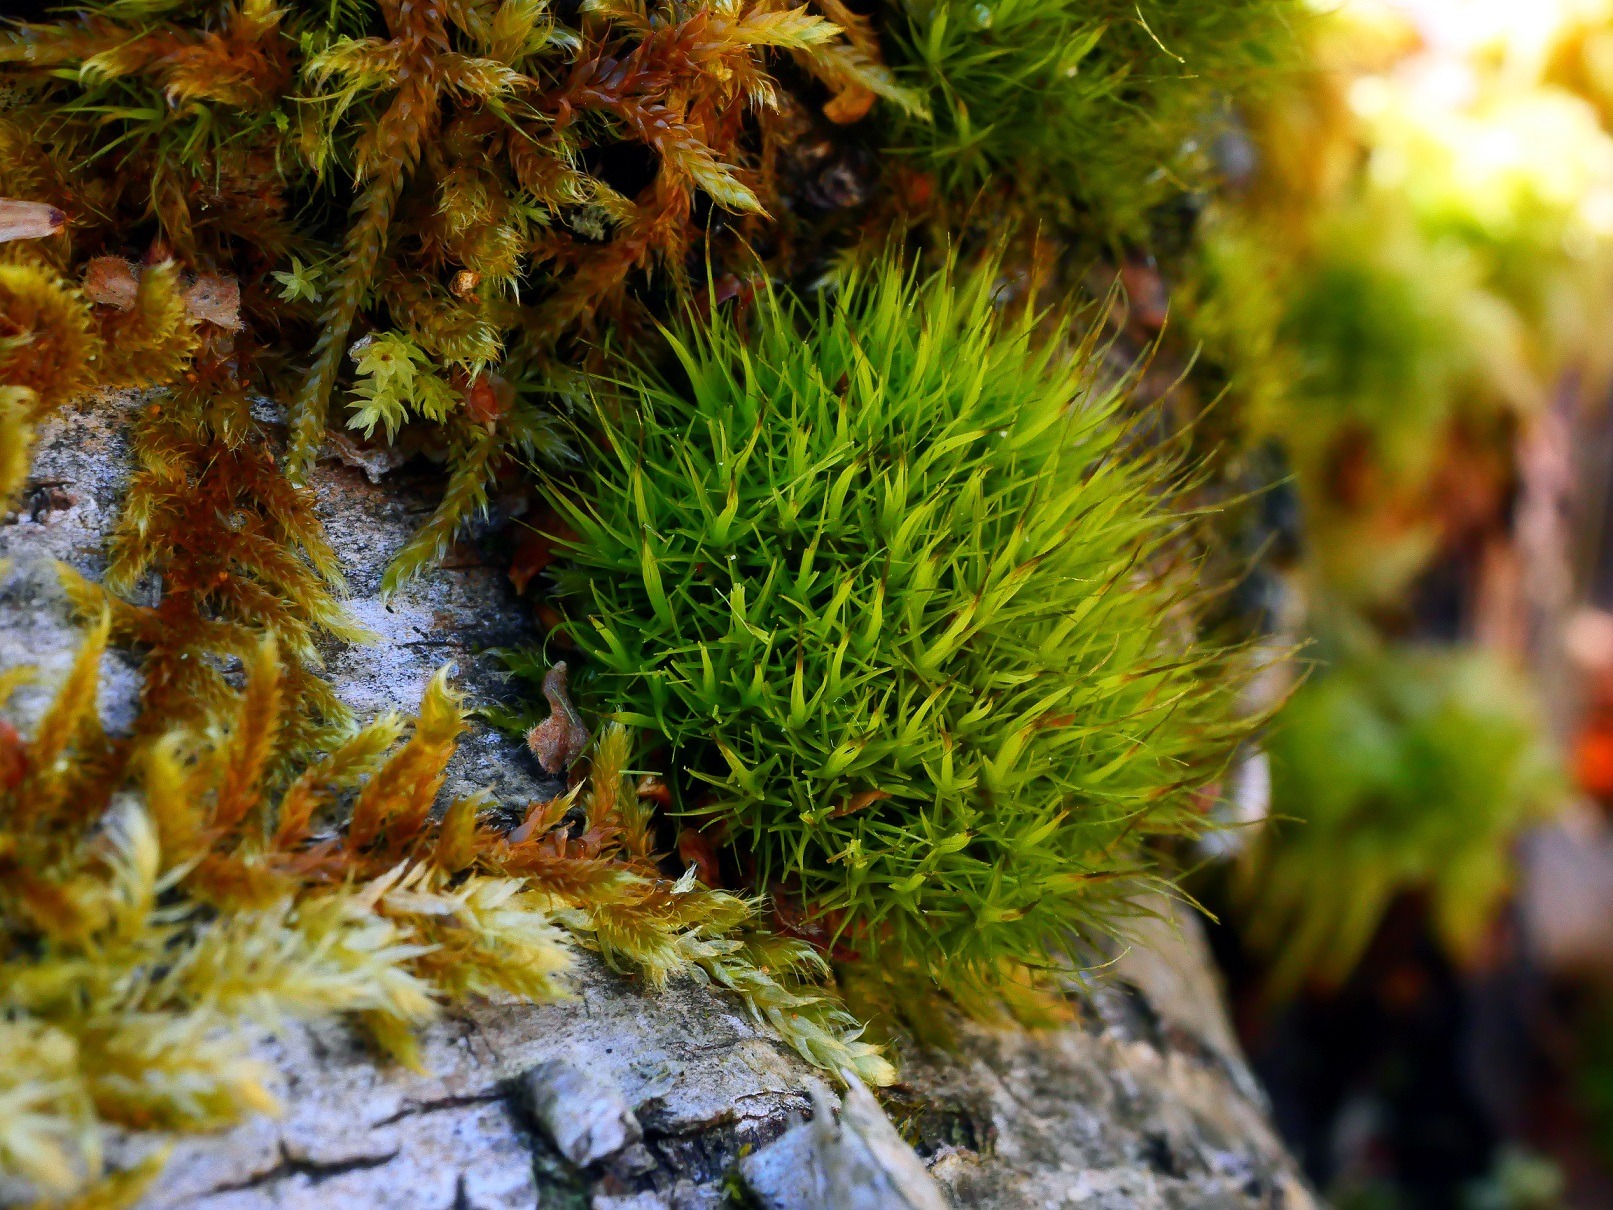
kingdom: Plantae
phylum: Bryophyta
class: Bryopsida
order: Dicranales
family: Dicranaceae
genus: Orthodicranum
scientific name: Orthodicranum tauricum
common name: Skør tyndvinge
